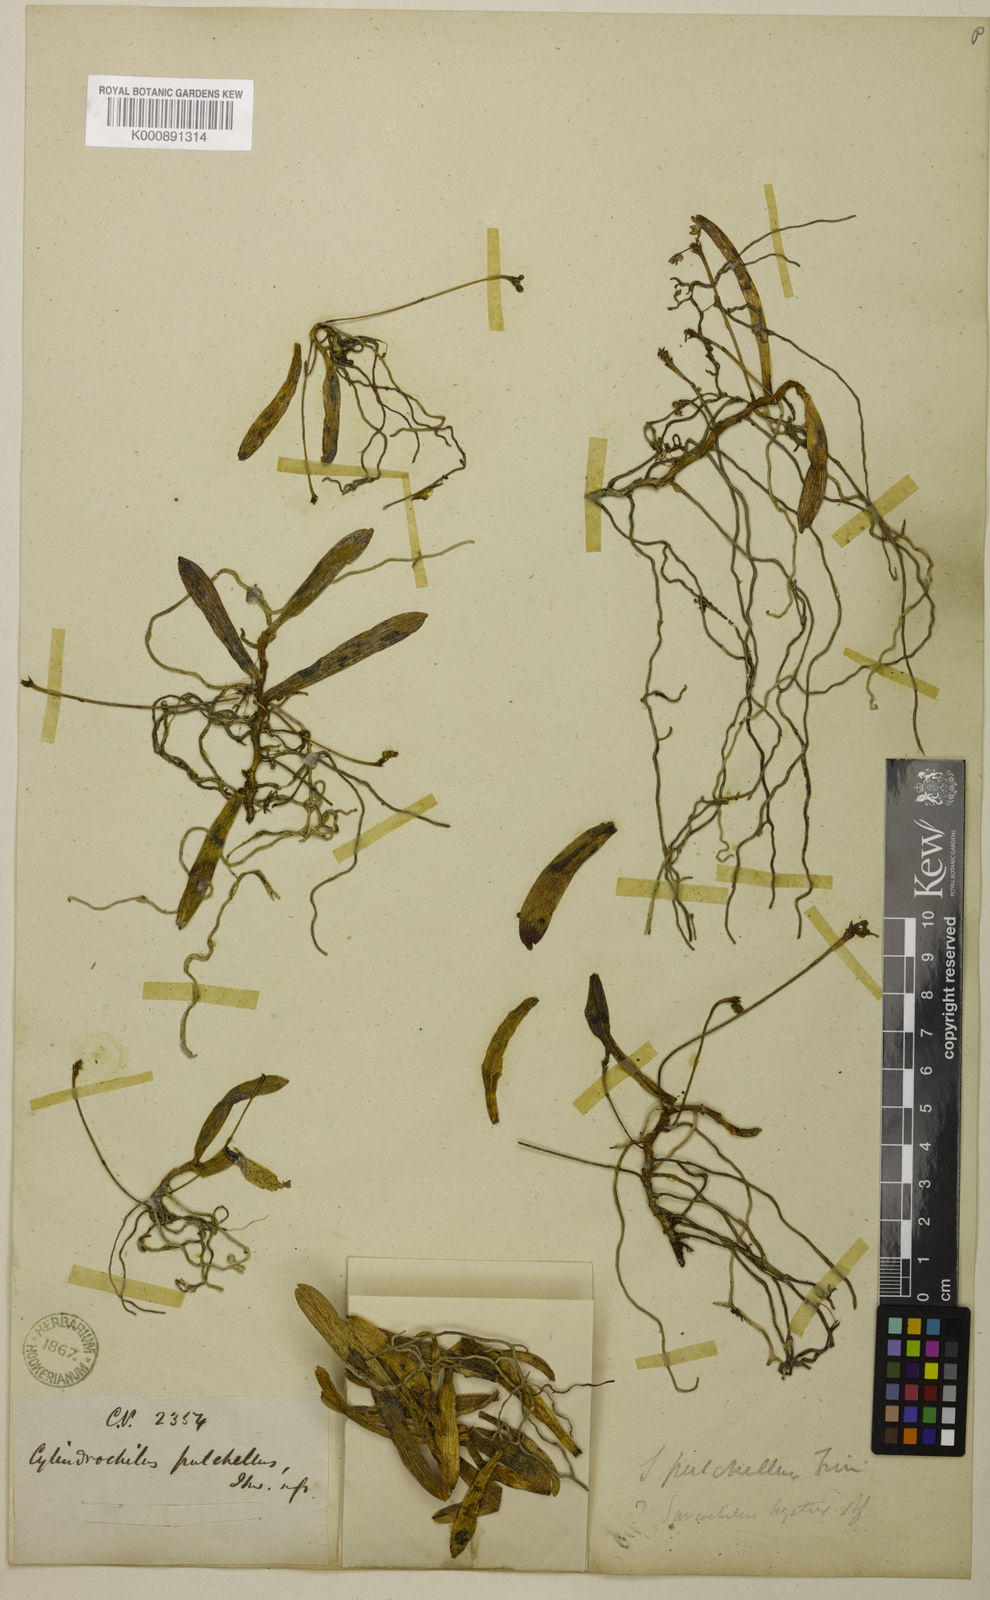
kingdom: Plantae
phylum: Tracheophyta
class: Liliopsida
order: Asparagales
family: Orchidaceae
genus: Thrixspermum
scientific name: Thrixspermum pulchellum
